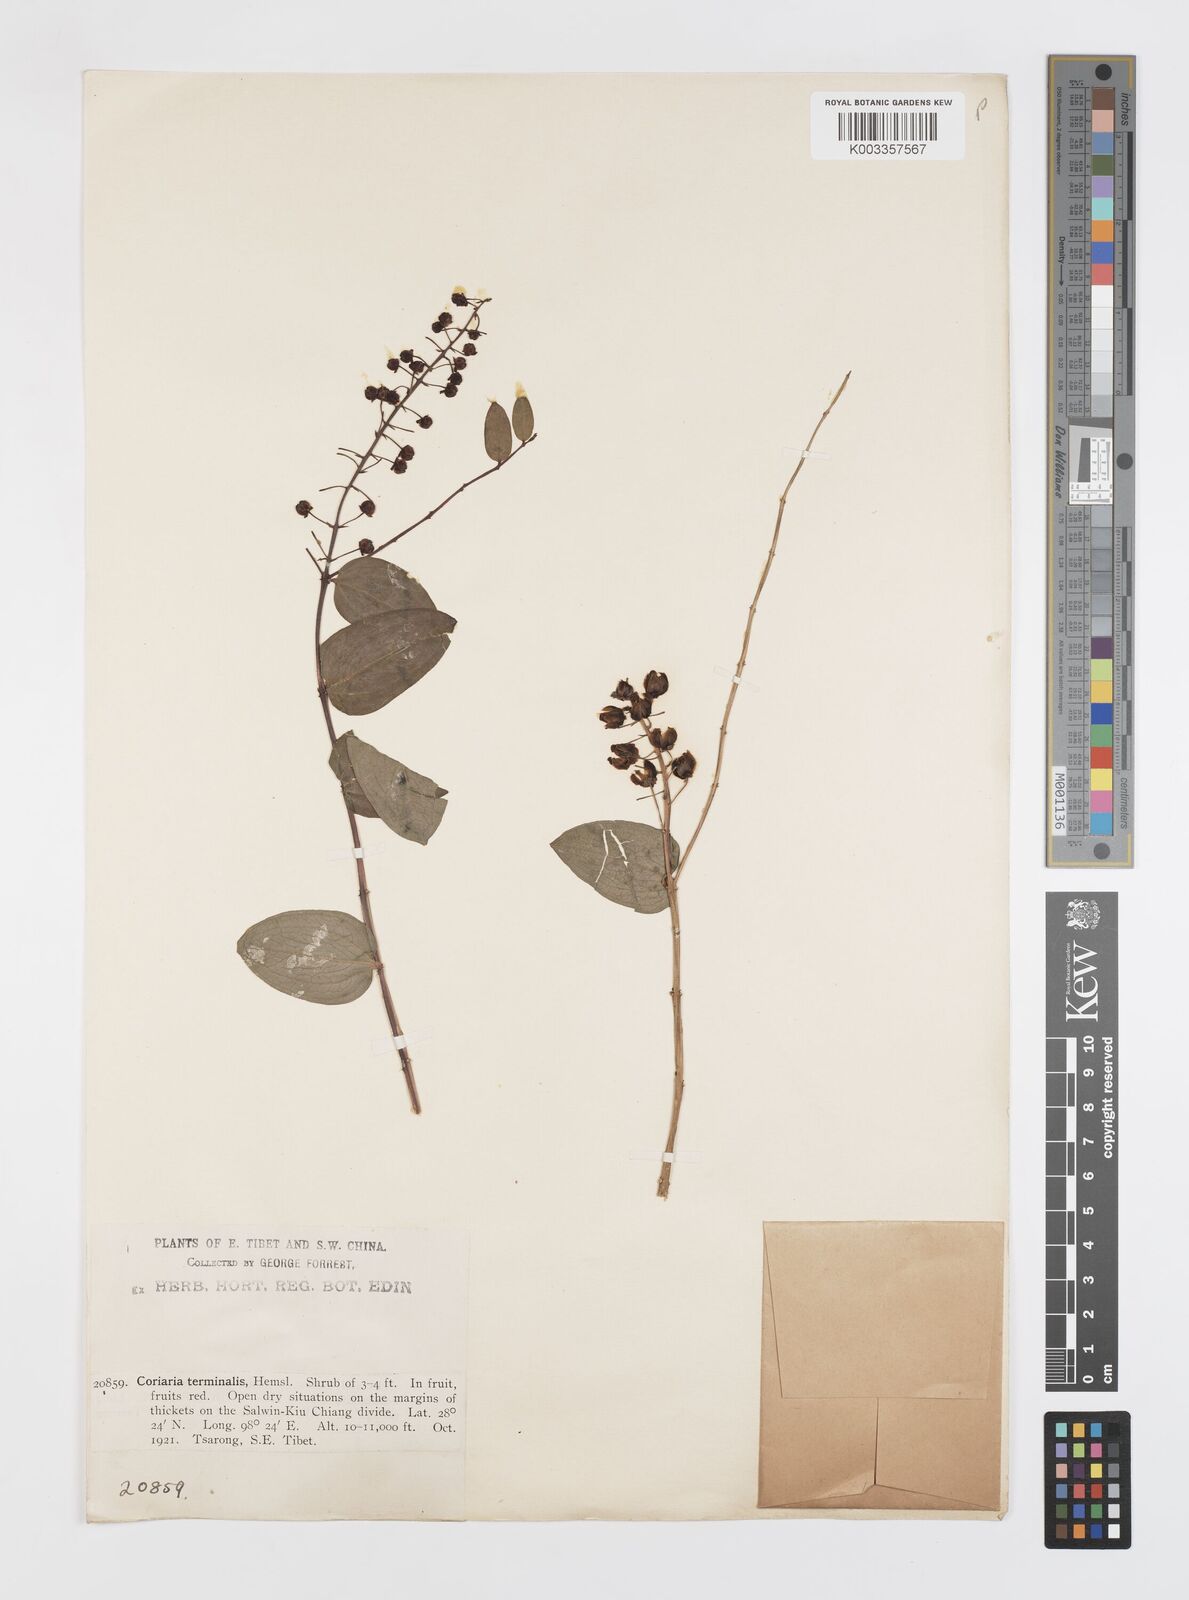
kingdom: Plantae
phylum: Tracheophyta
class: Magnoliopsida
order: Cucurbitales
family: Coriariaceae
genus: Coriaria
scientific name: Coriaria terminalis
